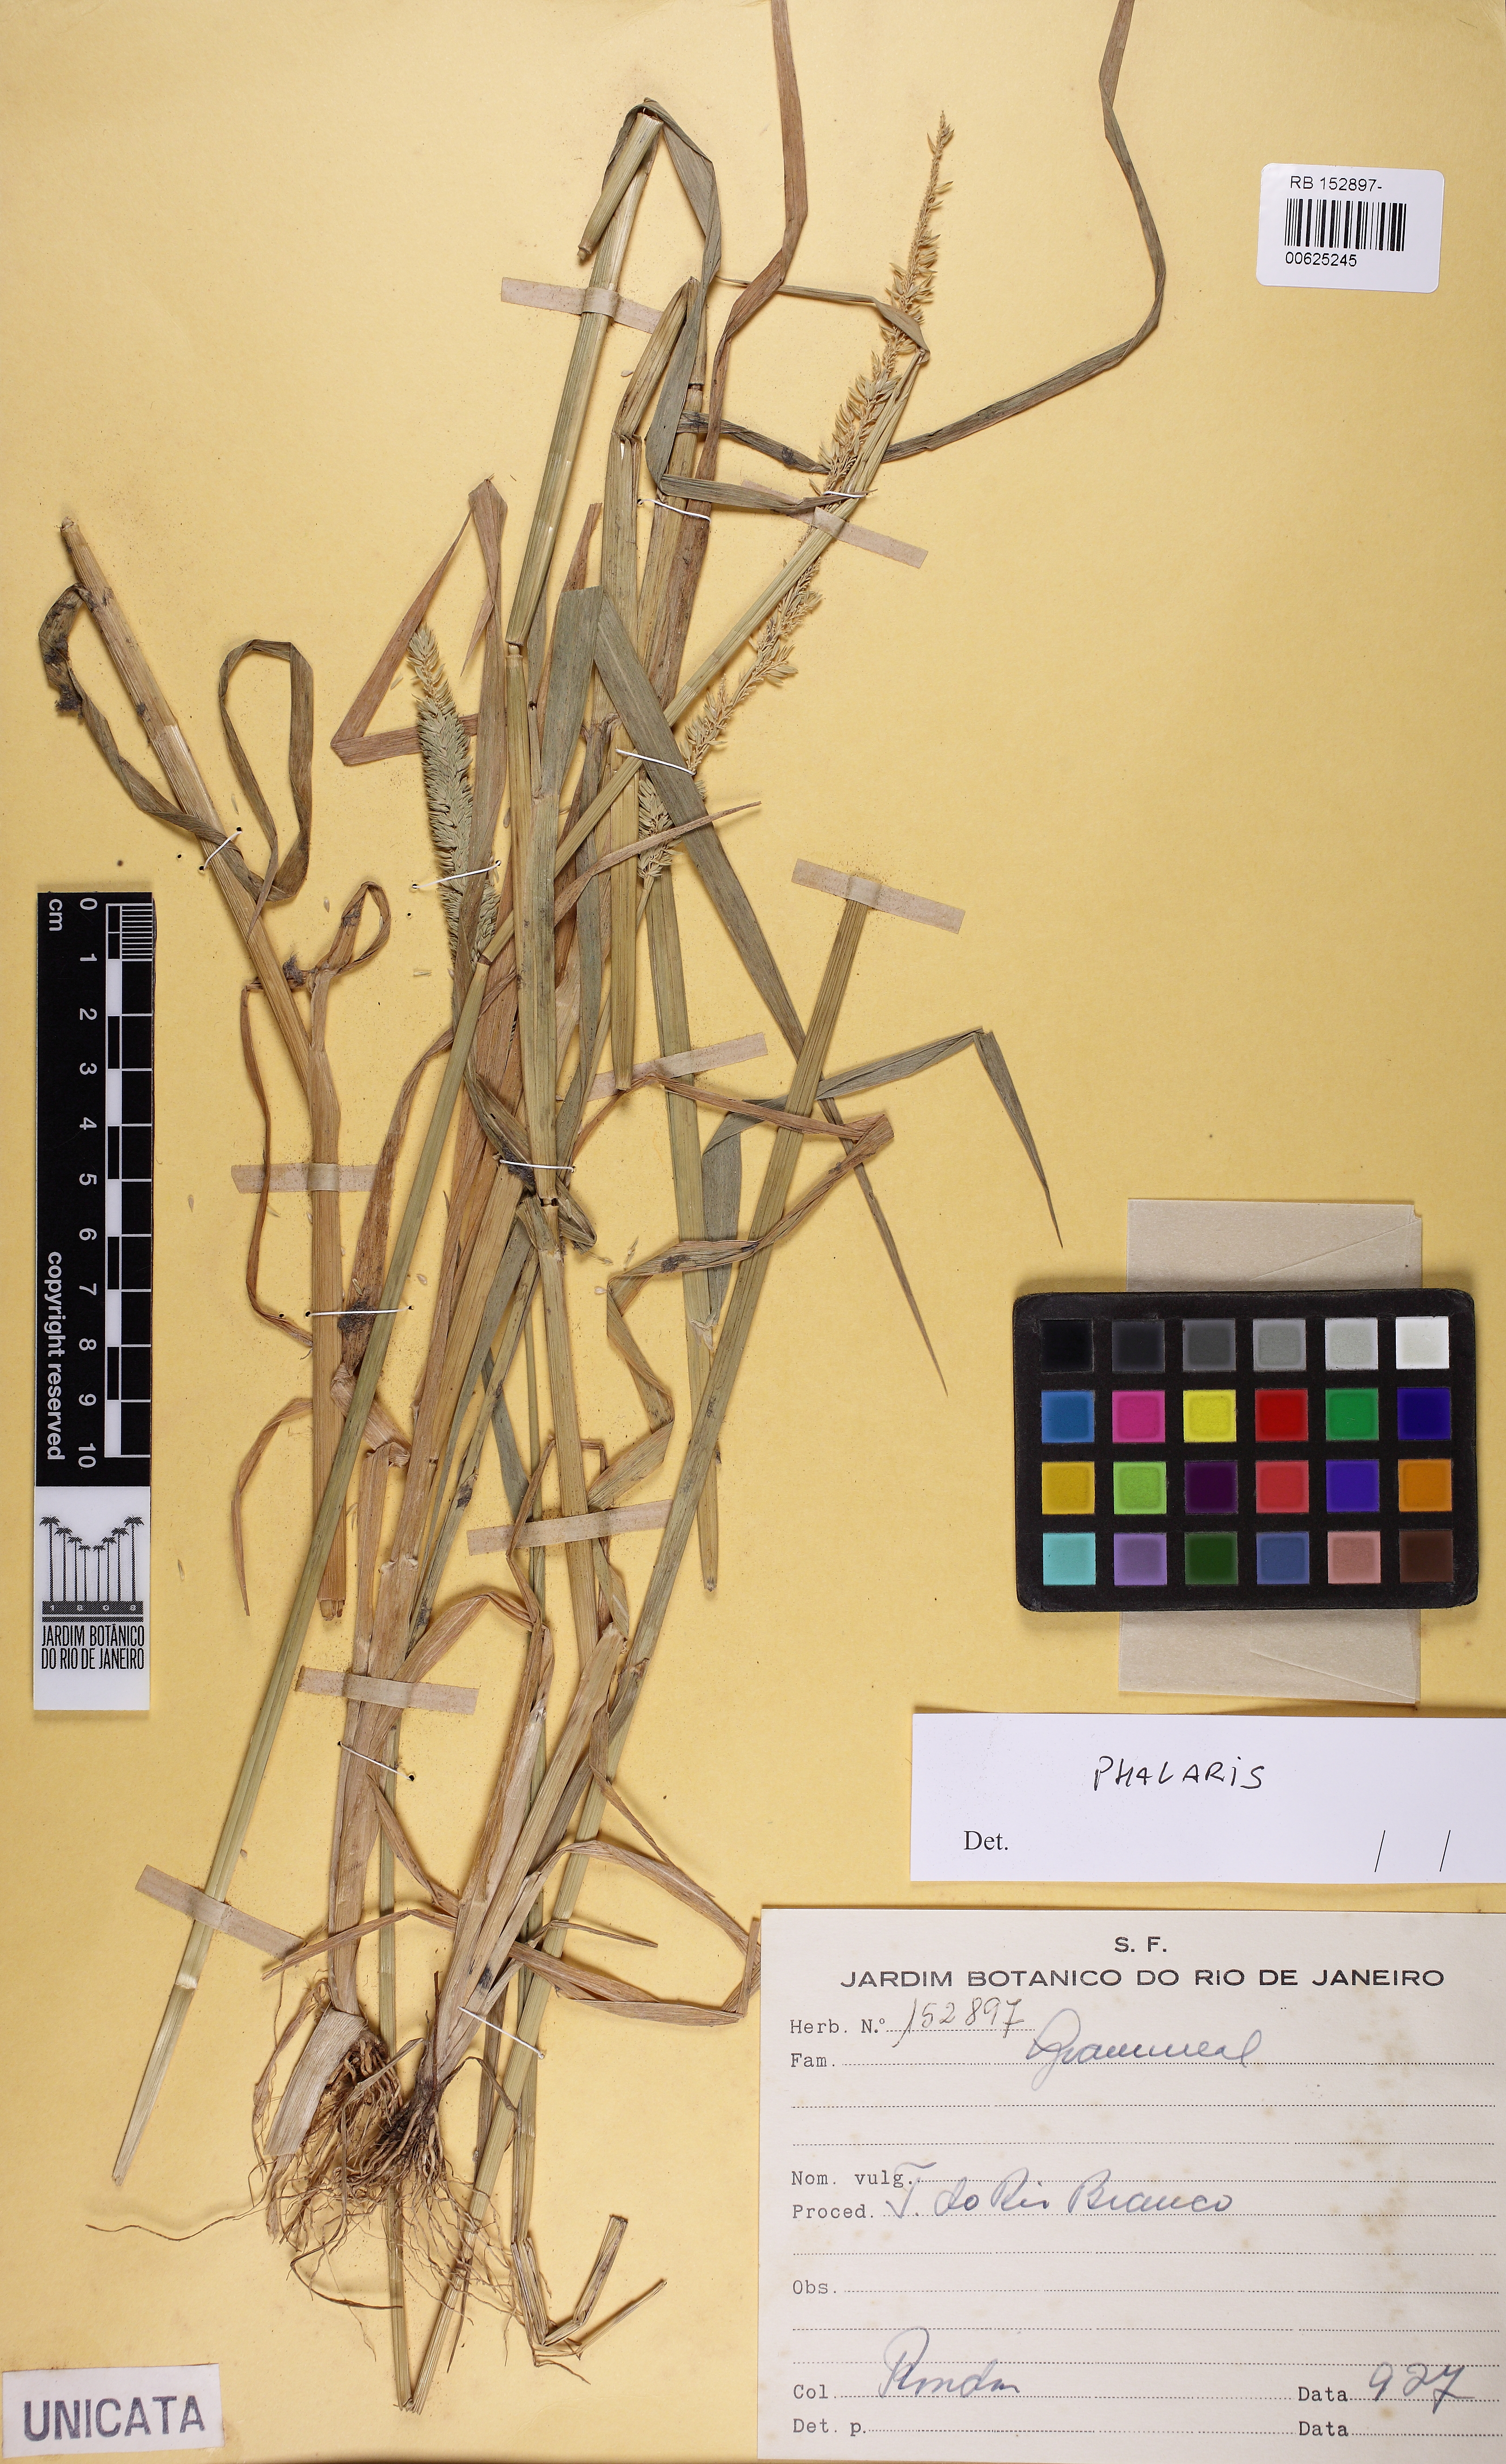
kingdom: Plantae
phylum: Tracheophyta
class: Liliopsida
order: Poales
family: Poaceae
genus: Phalaris
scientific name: Phalaris
